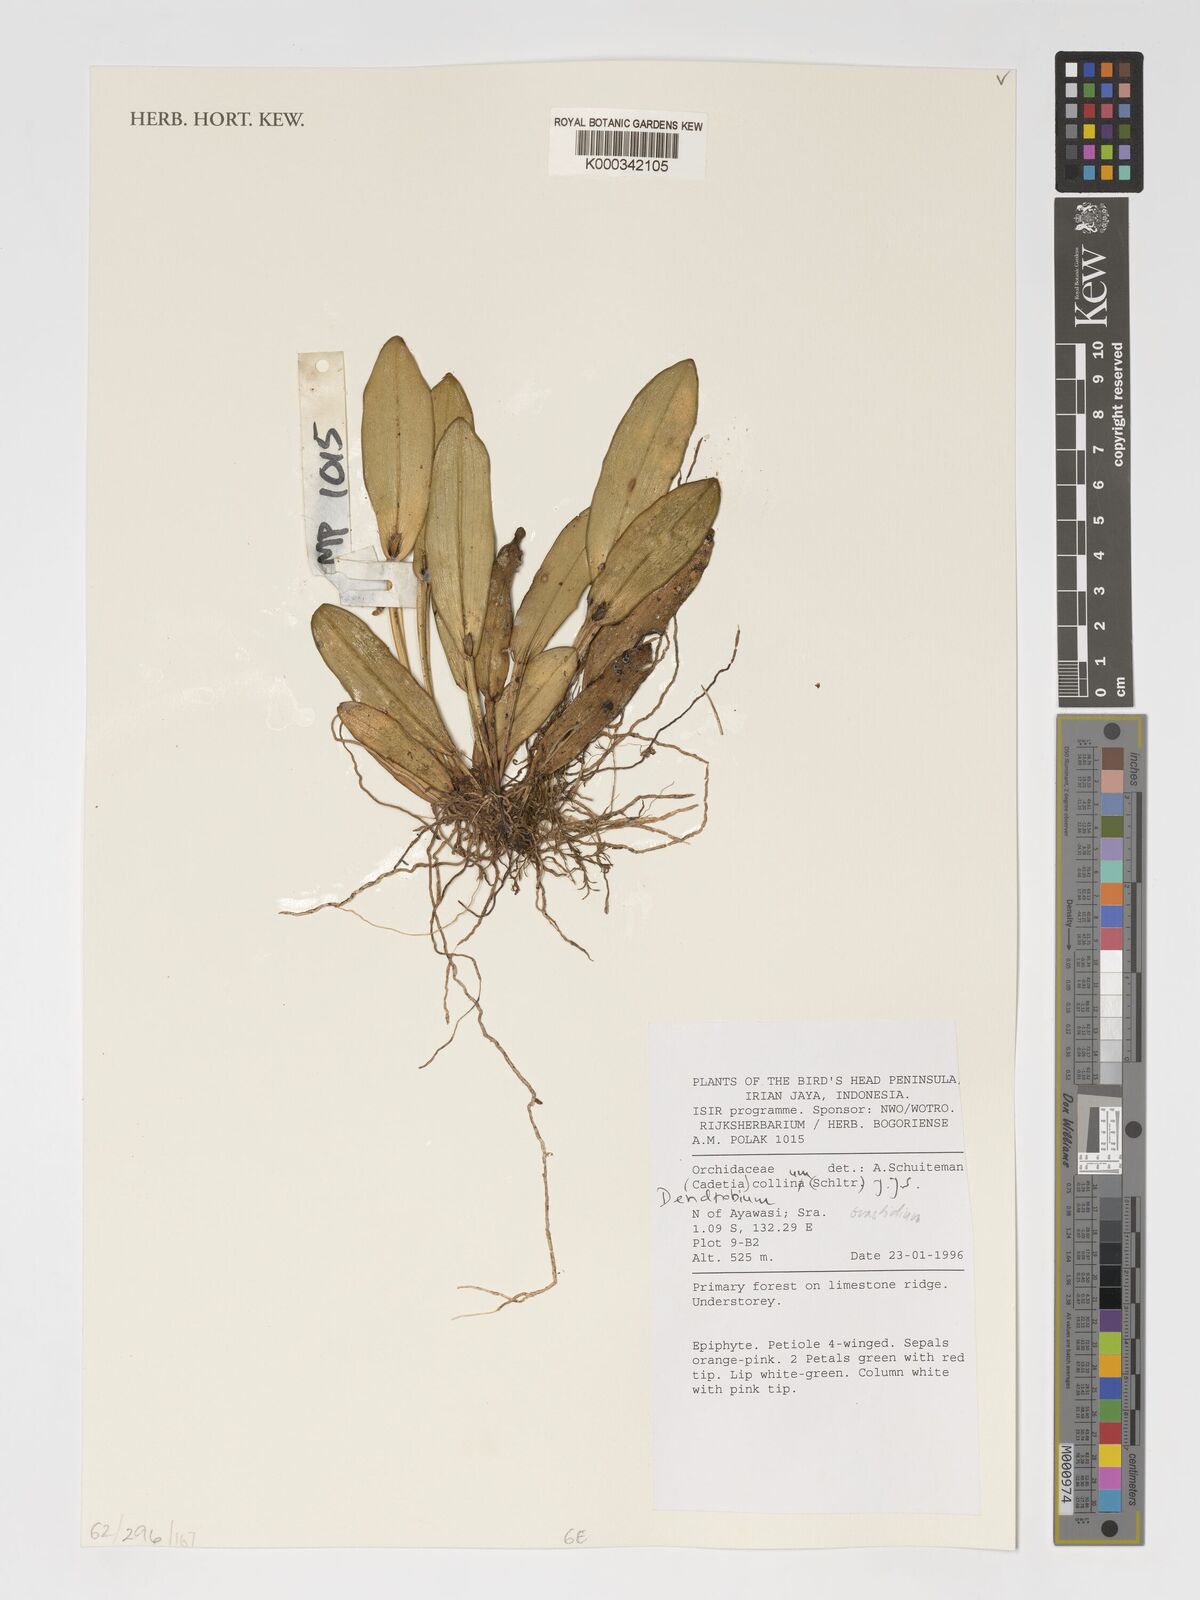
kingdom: Plantae
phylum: Tracheophyta
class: Liliopsida
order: Asparagales
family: Orchidaceae
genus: Dendrobium
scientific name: Dendrobium versteegii
